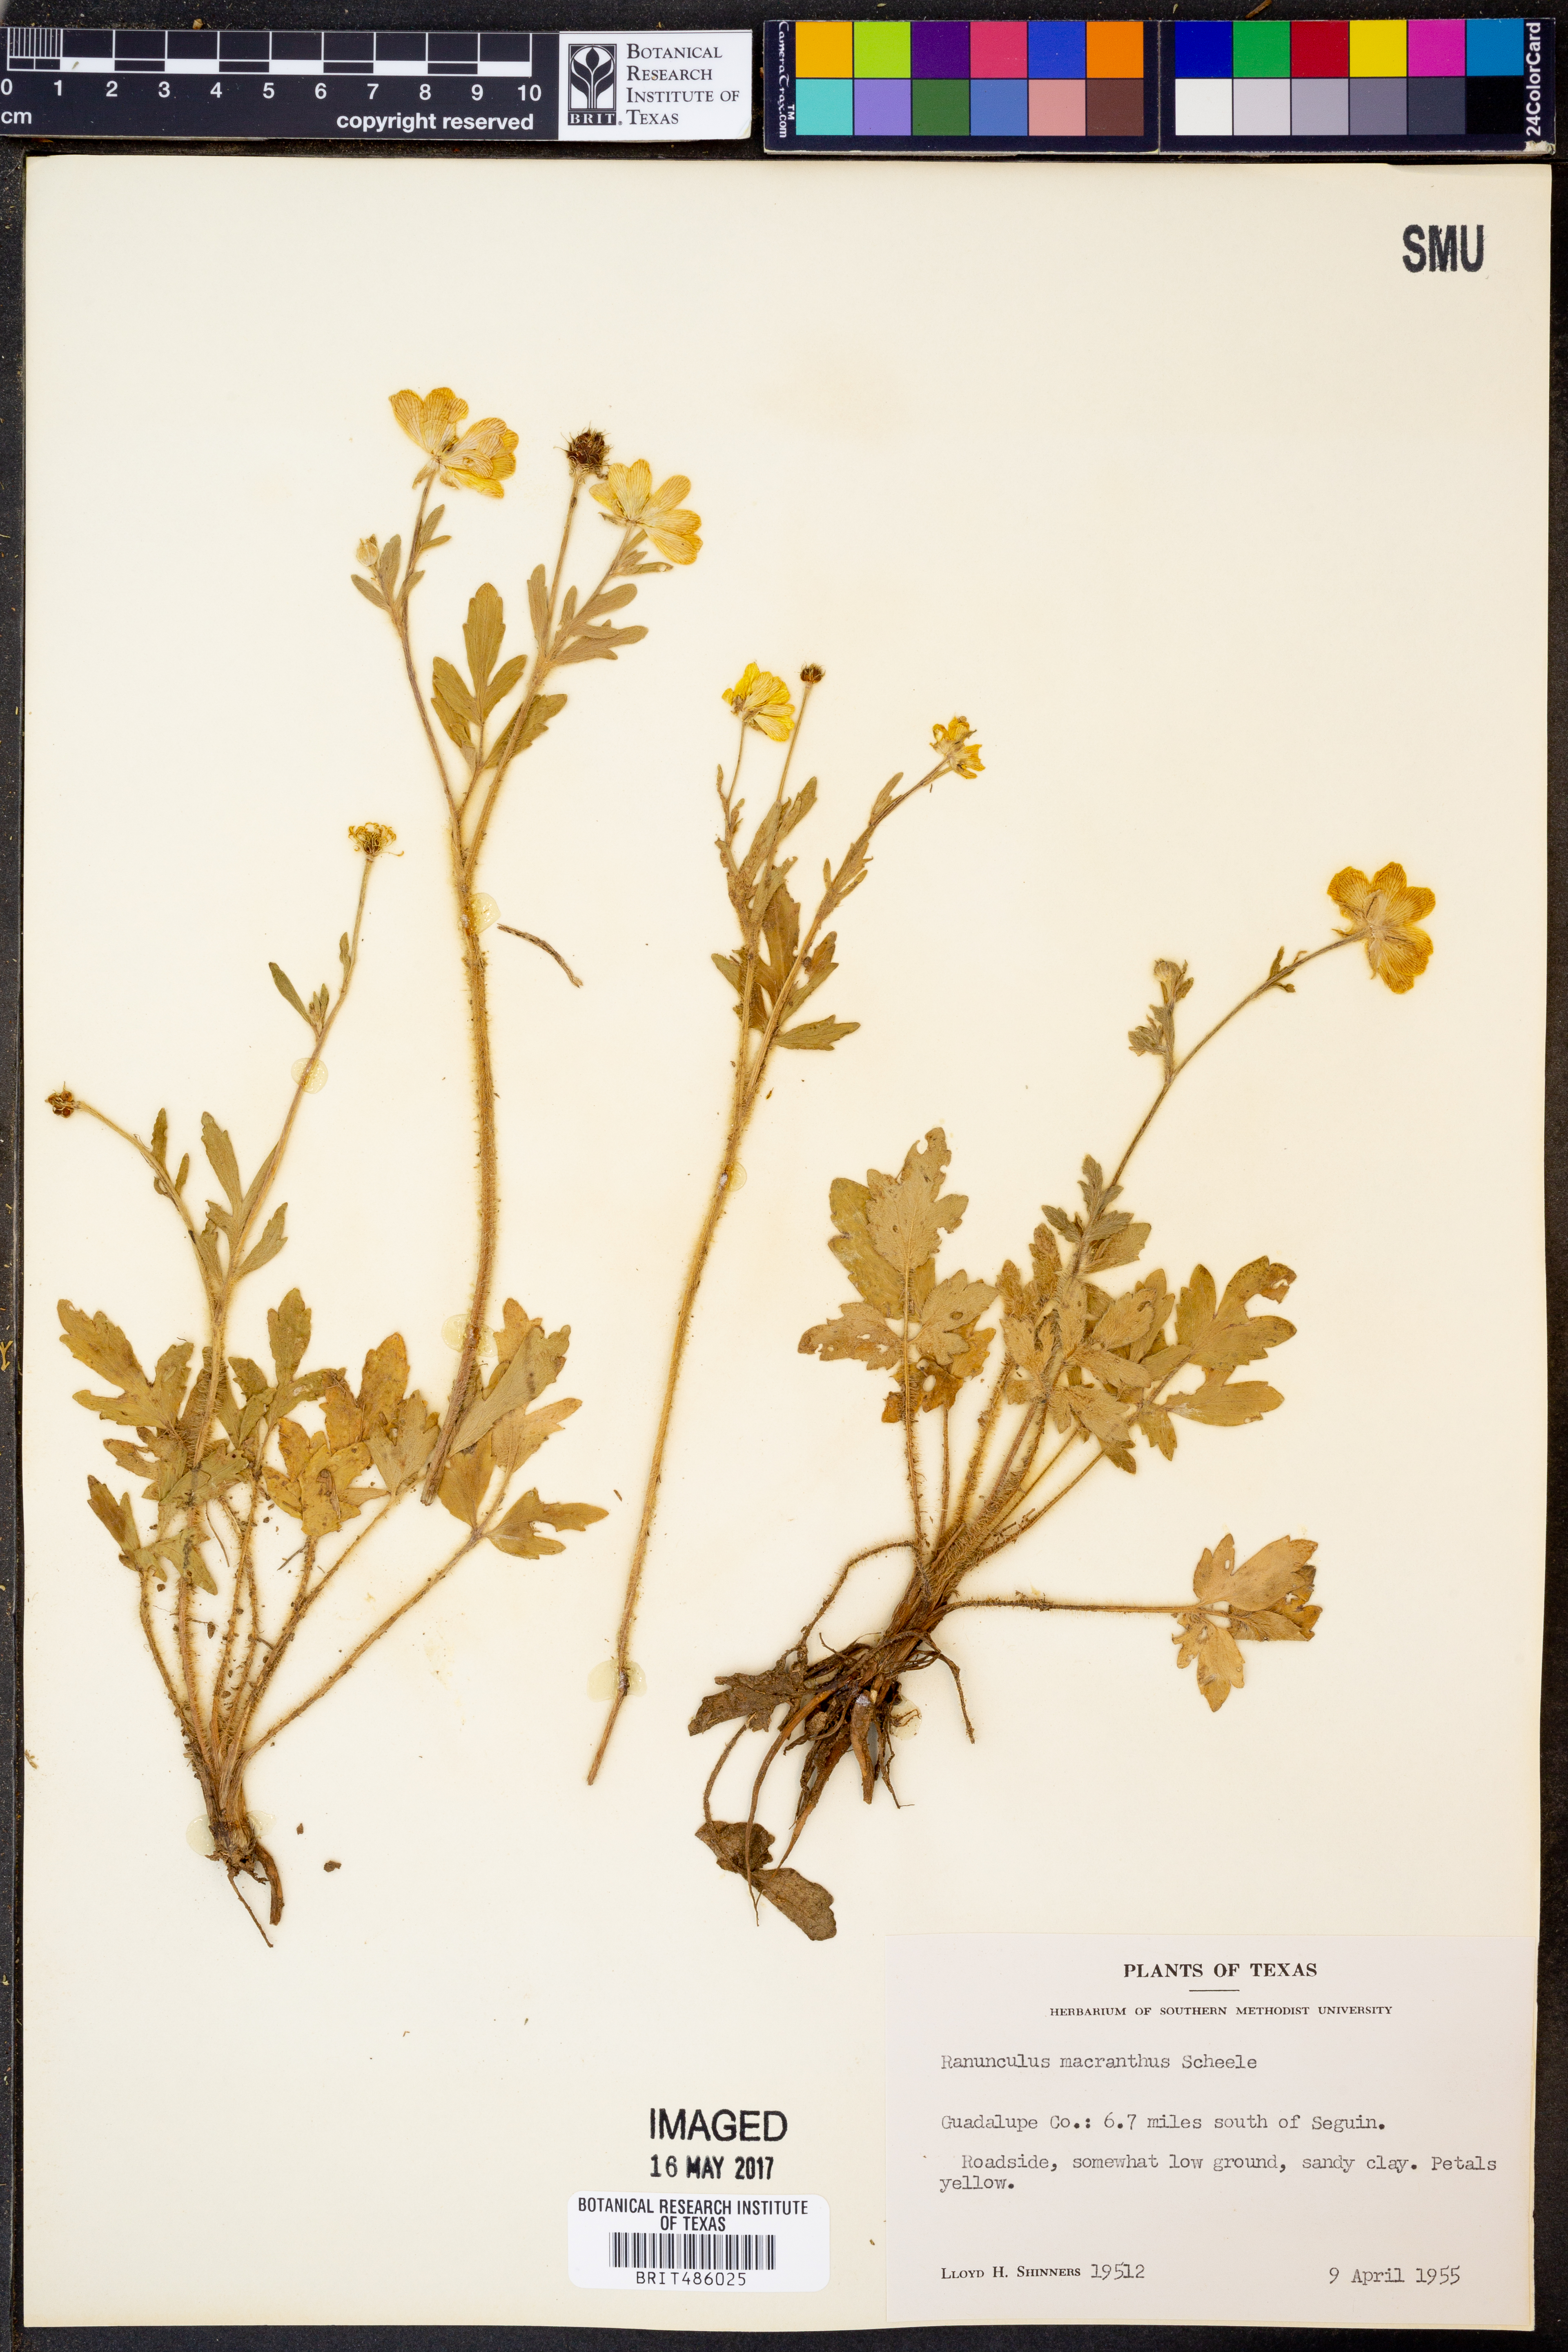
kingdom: Plantae
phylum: Tracheophyta
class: Magnoliopsida
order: Ranunculales
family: Ranunculaceae
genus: Ranunculus
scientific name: Ranunculus macranthus
